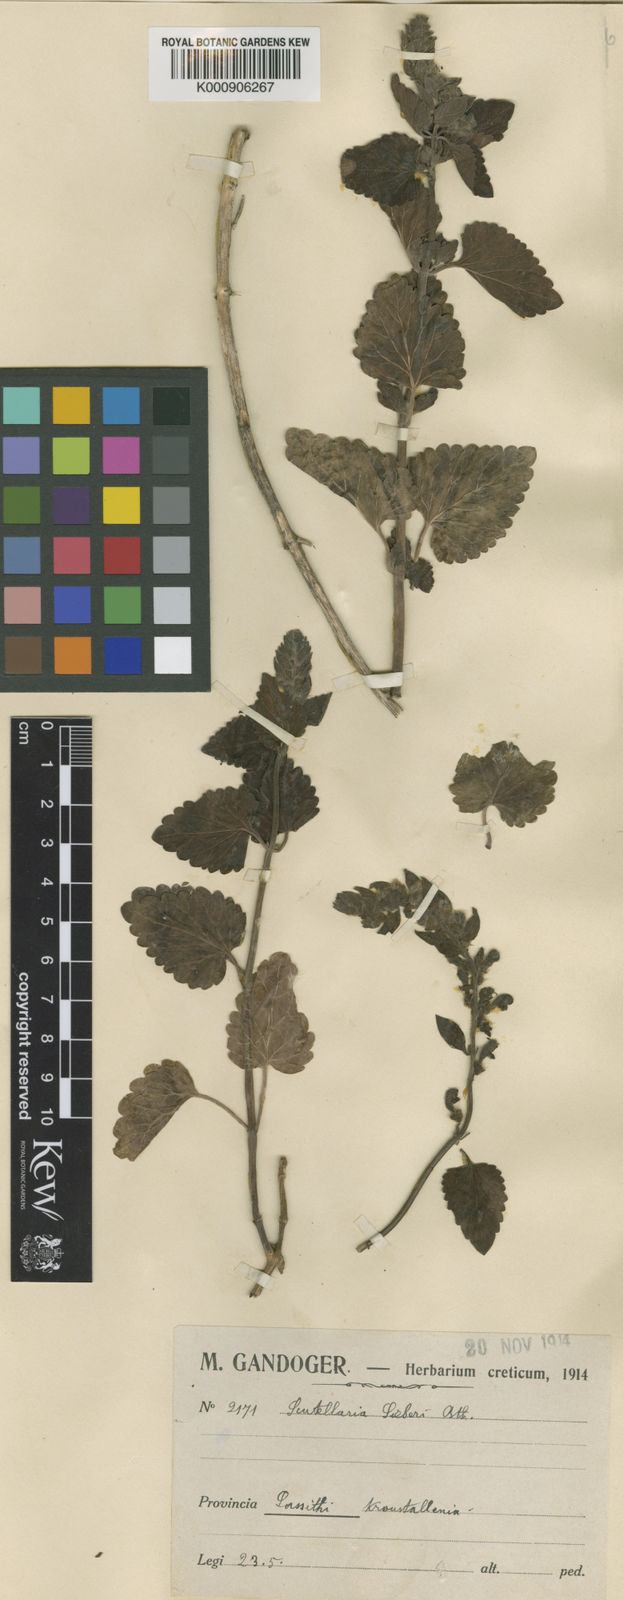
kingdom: Plantae
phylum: Tracheophyta
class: Magnoliopsida
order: Lamiales
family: Lamiaceae
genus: Scutellaria
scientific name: Scutellaria sieberi
